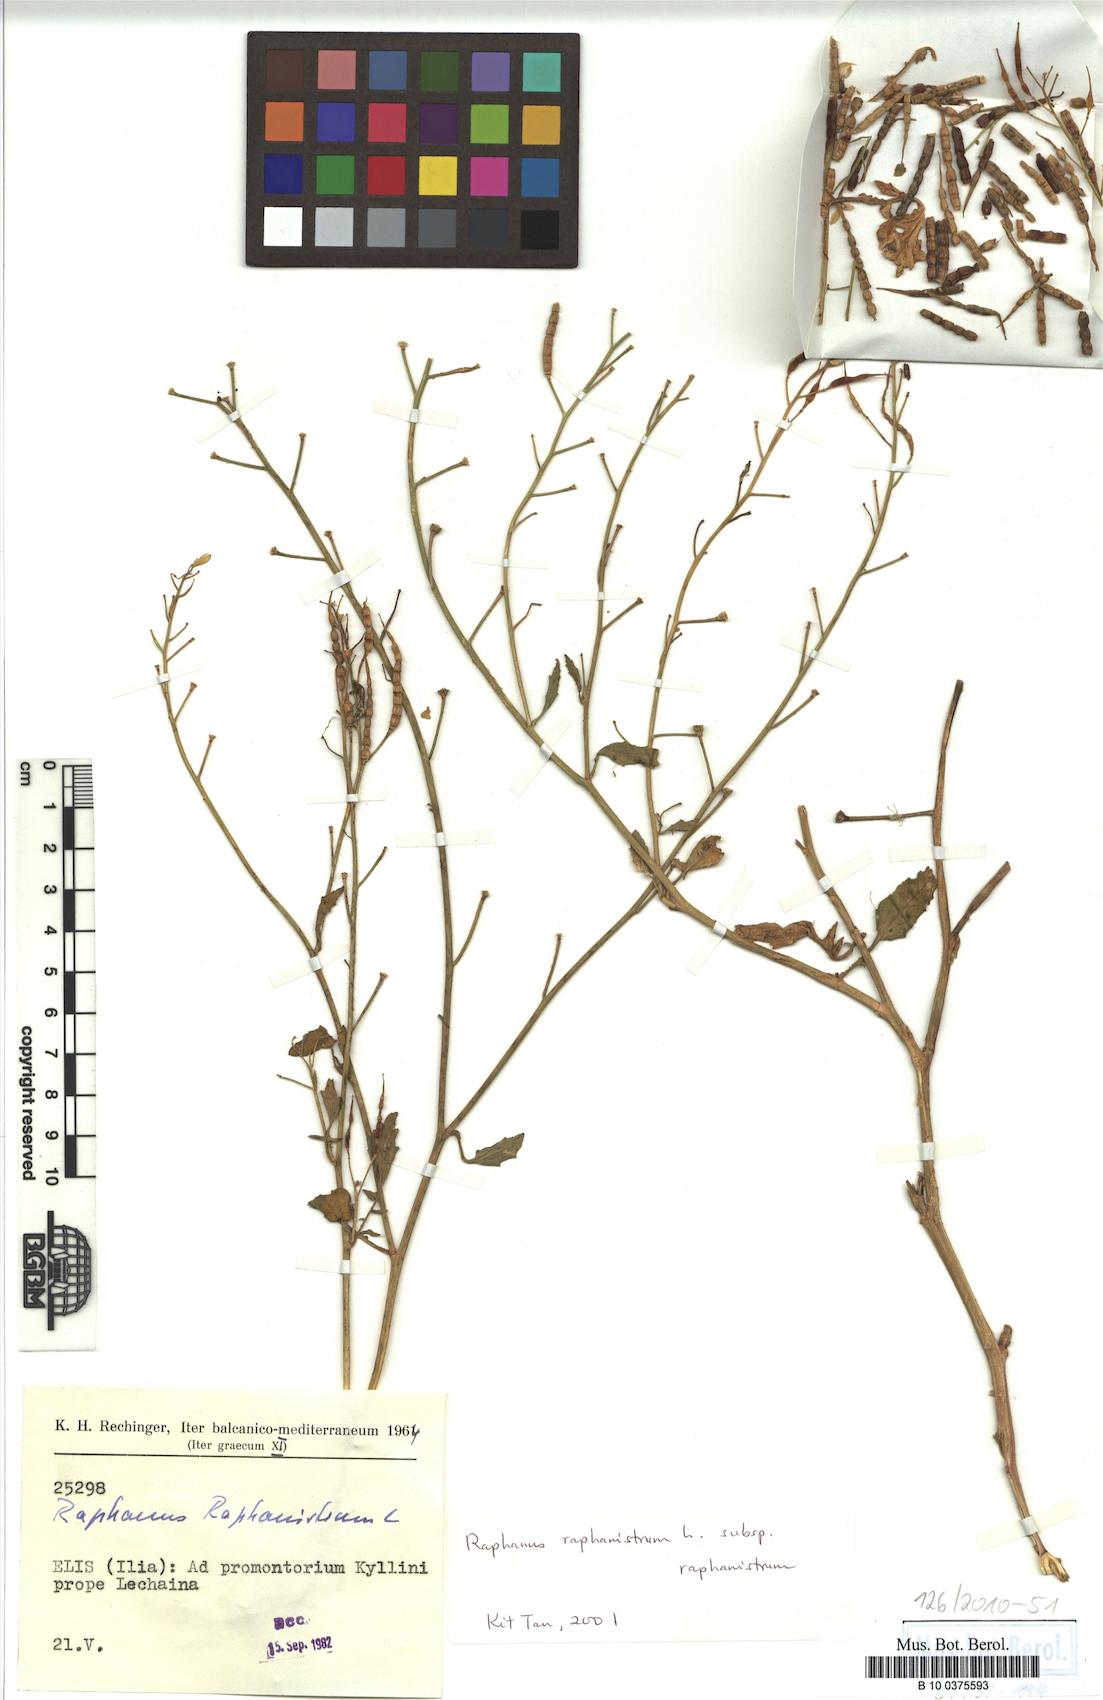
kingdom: Plantae
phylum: Tracheophyta
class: Magnoliopsida
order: Brassicales
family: Brassicaceae
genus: Raphanus
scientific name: Raphanus raphanistrum
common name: Wild radish
